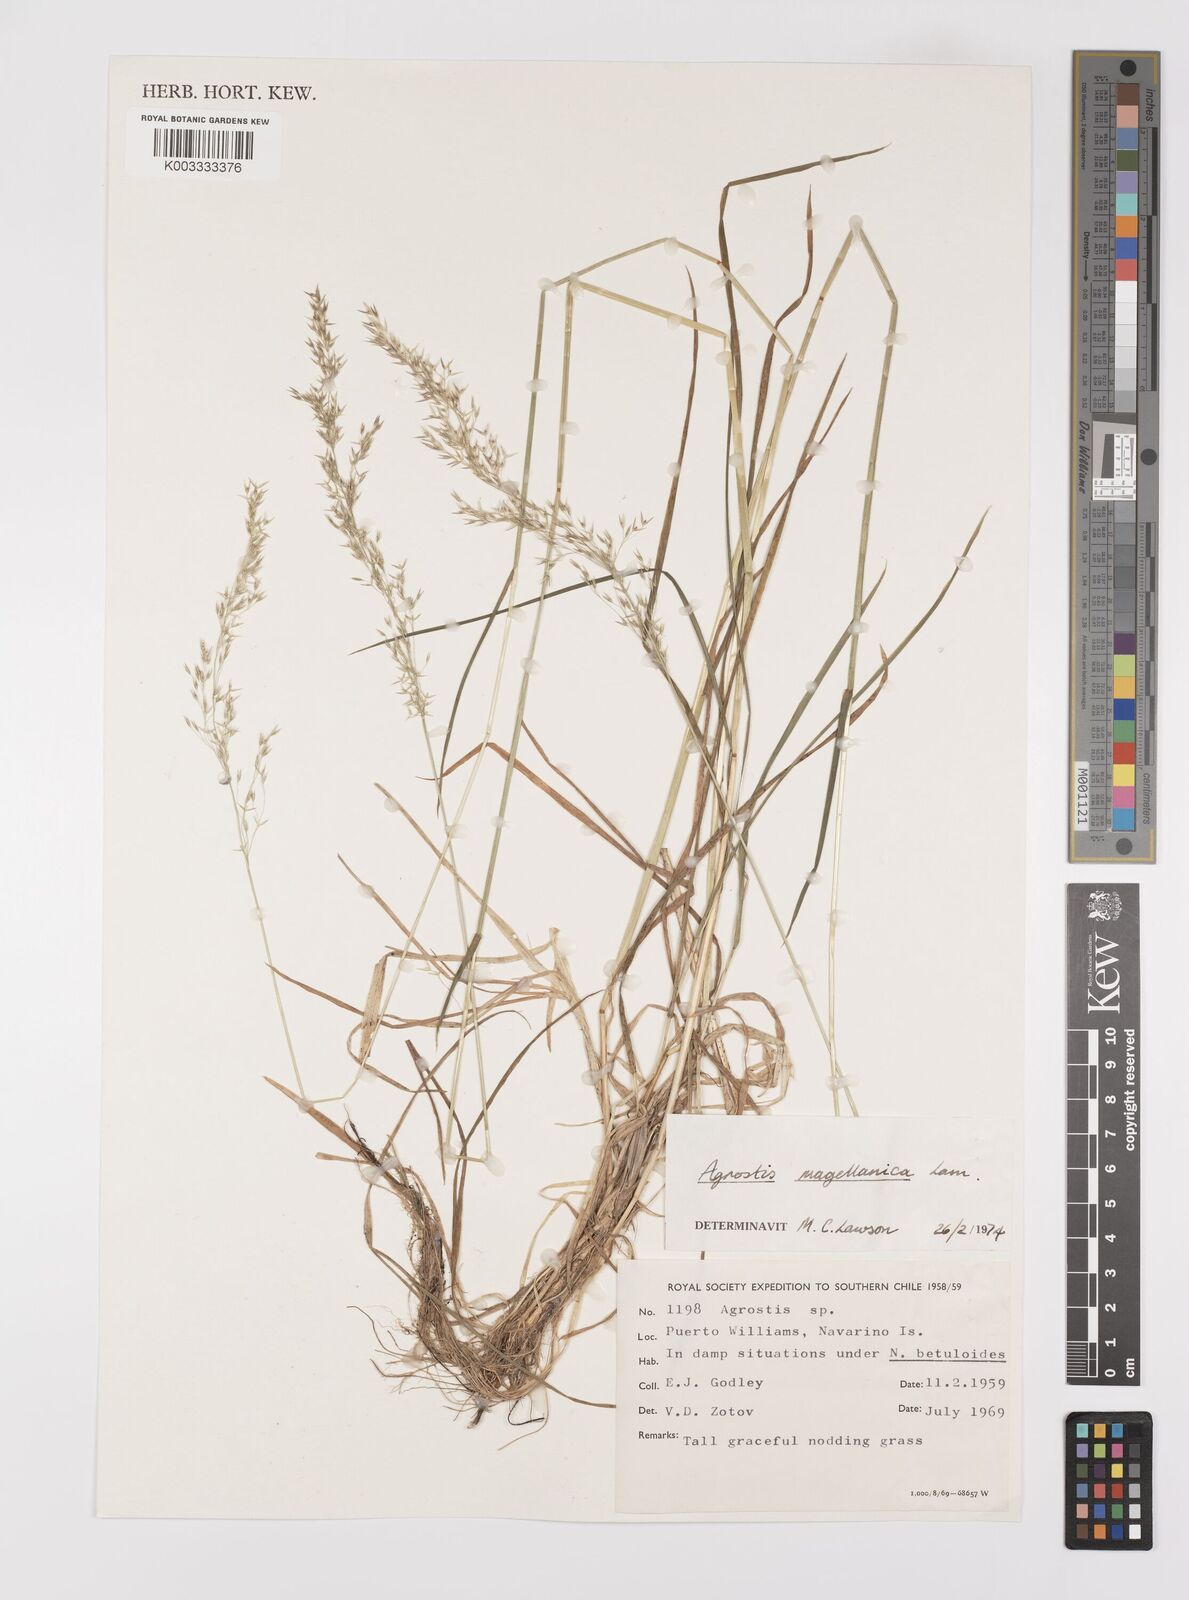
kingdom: Plantae
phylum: Tracheophyta
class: Liliopsida
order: Poales
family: Poaceae
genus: Polypogon
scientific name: Polypogon magellanicus
